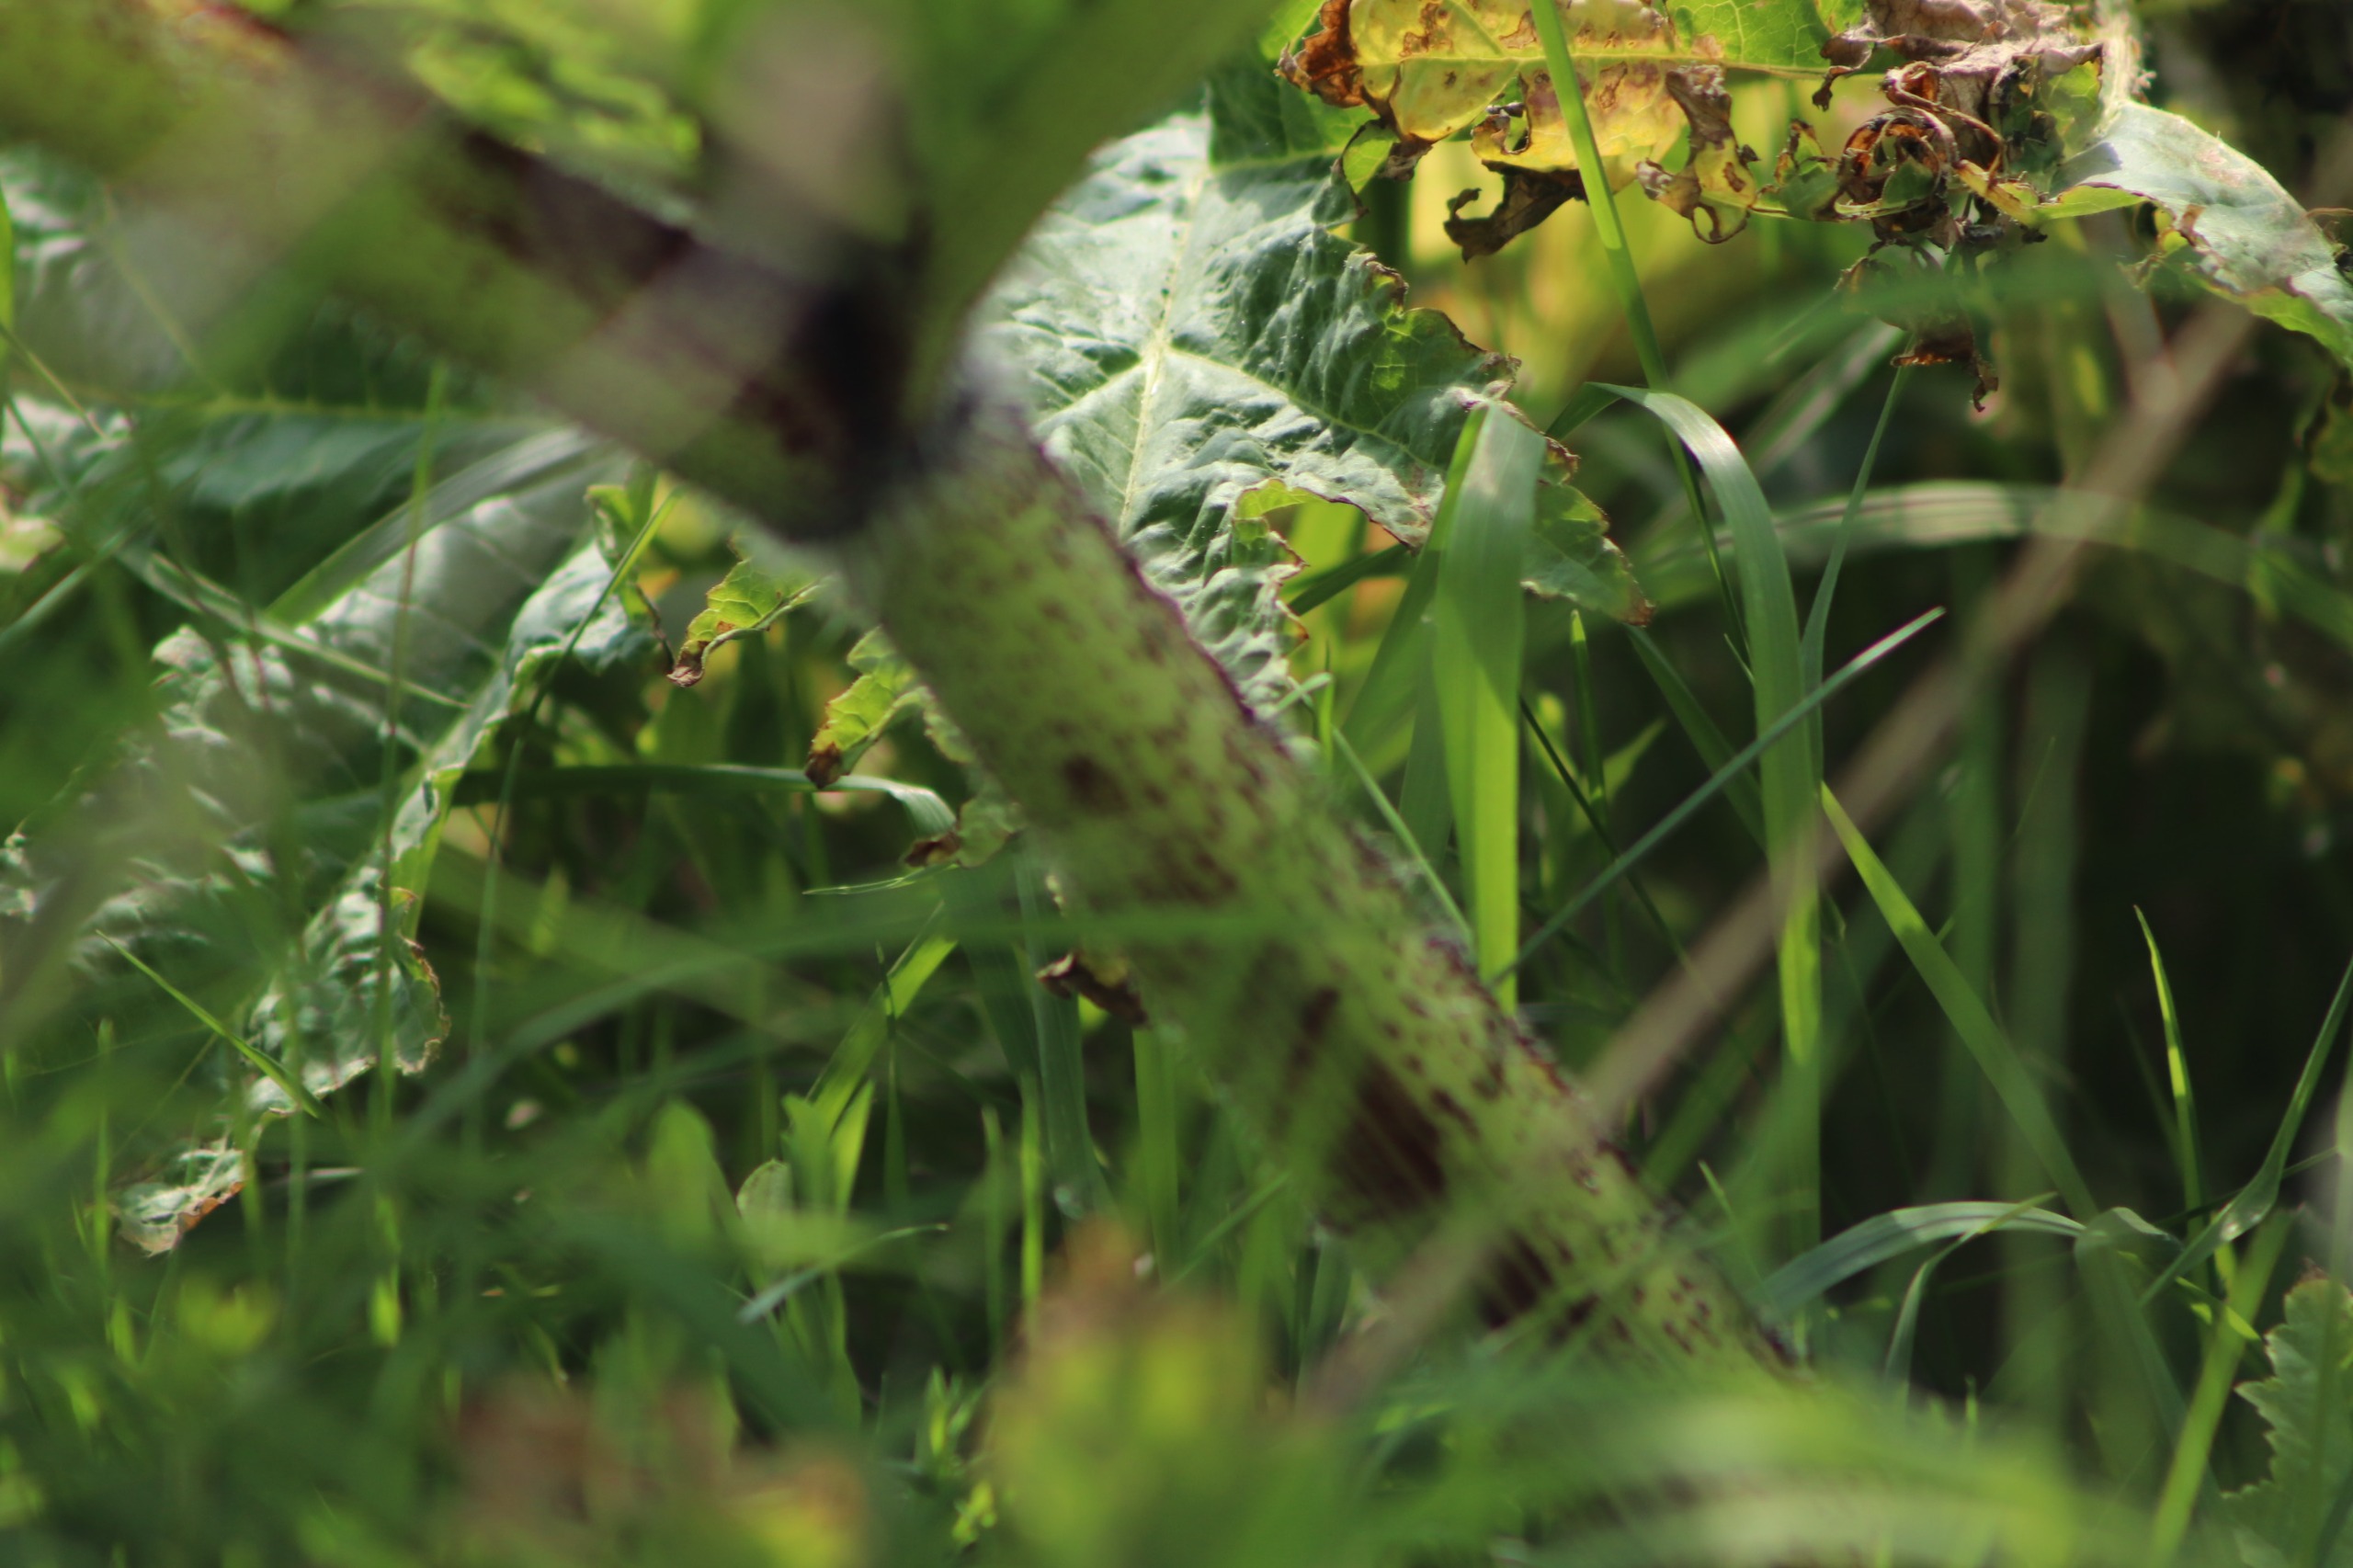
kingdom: Plantae
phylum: Tracheophyta
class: Magnoliopsida
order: Apiales
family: Apiaceae
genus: Heracleum
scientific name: Heracleum mantegazzianum
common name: Kæmpe-bjørneklo
